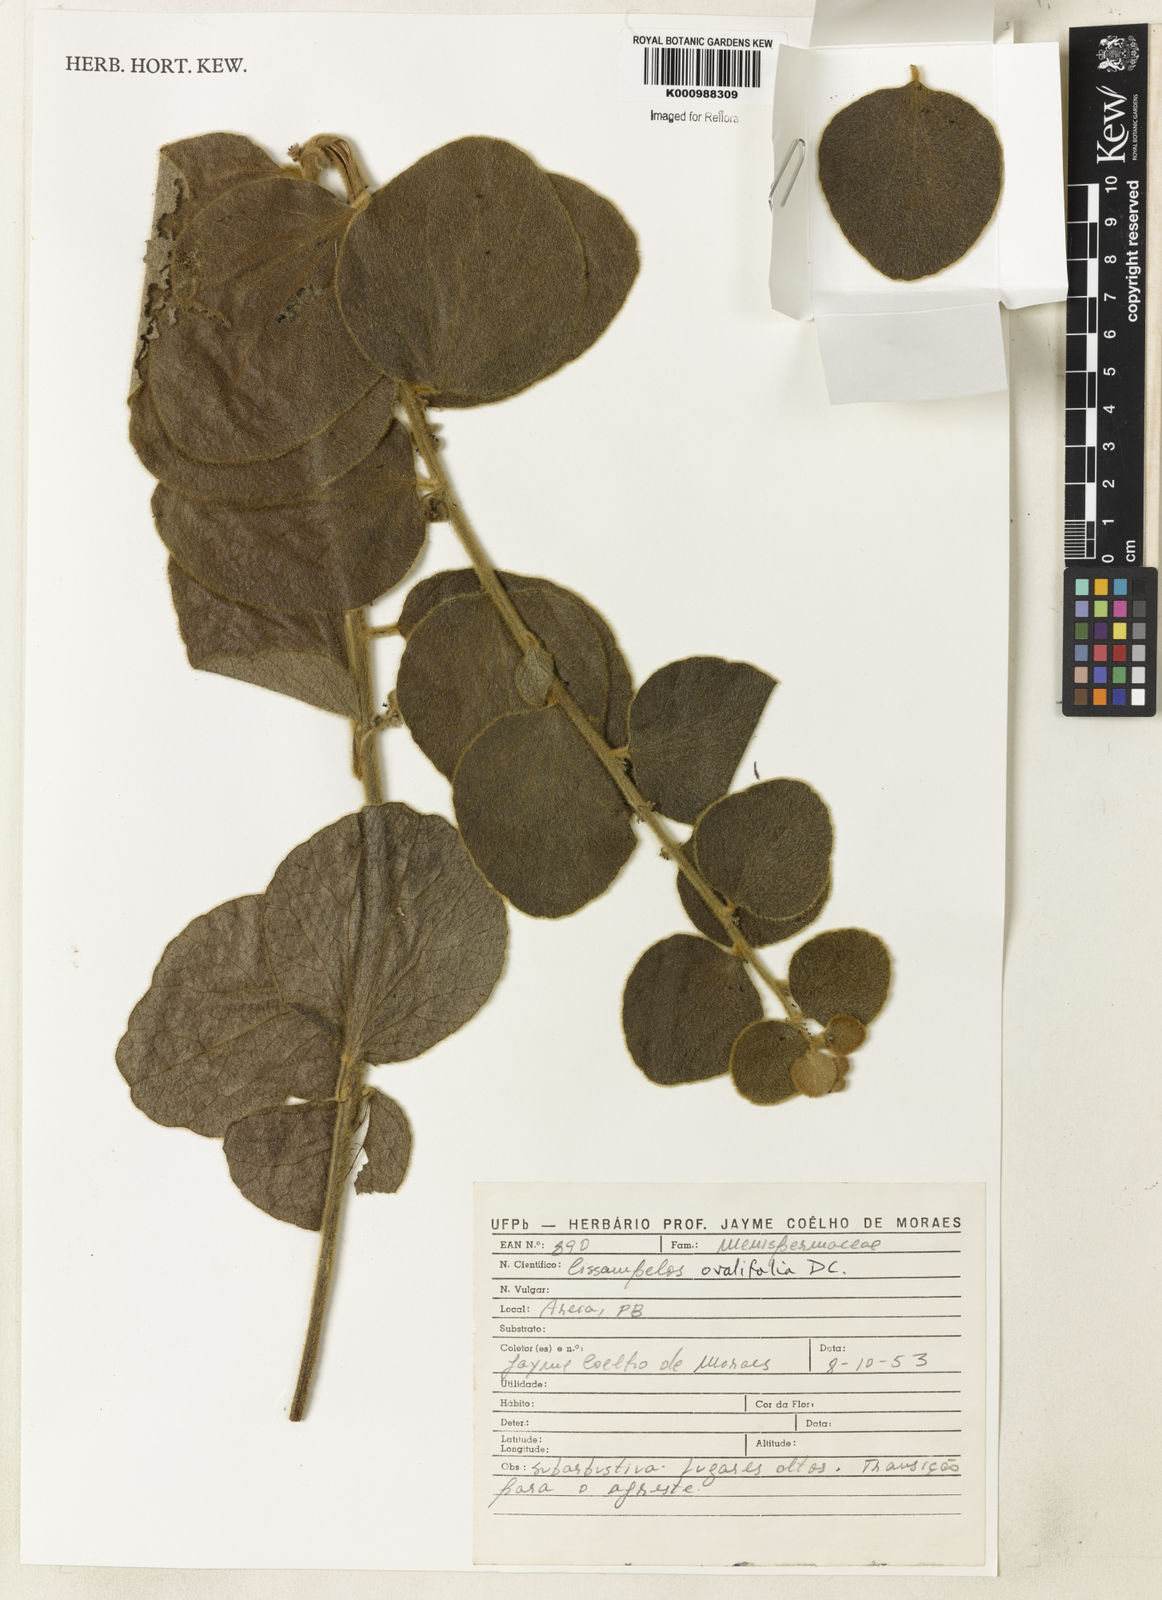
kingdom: Plantae
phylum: Tracheophyta
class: Magnoliopsida
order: Ranunculales
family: Menispermaceae
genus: Cissampelos
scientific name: Cissampelos ovalifolia
